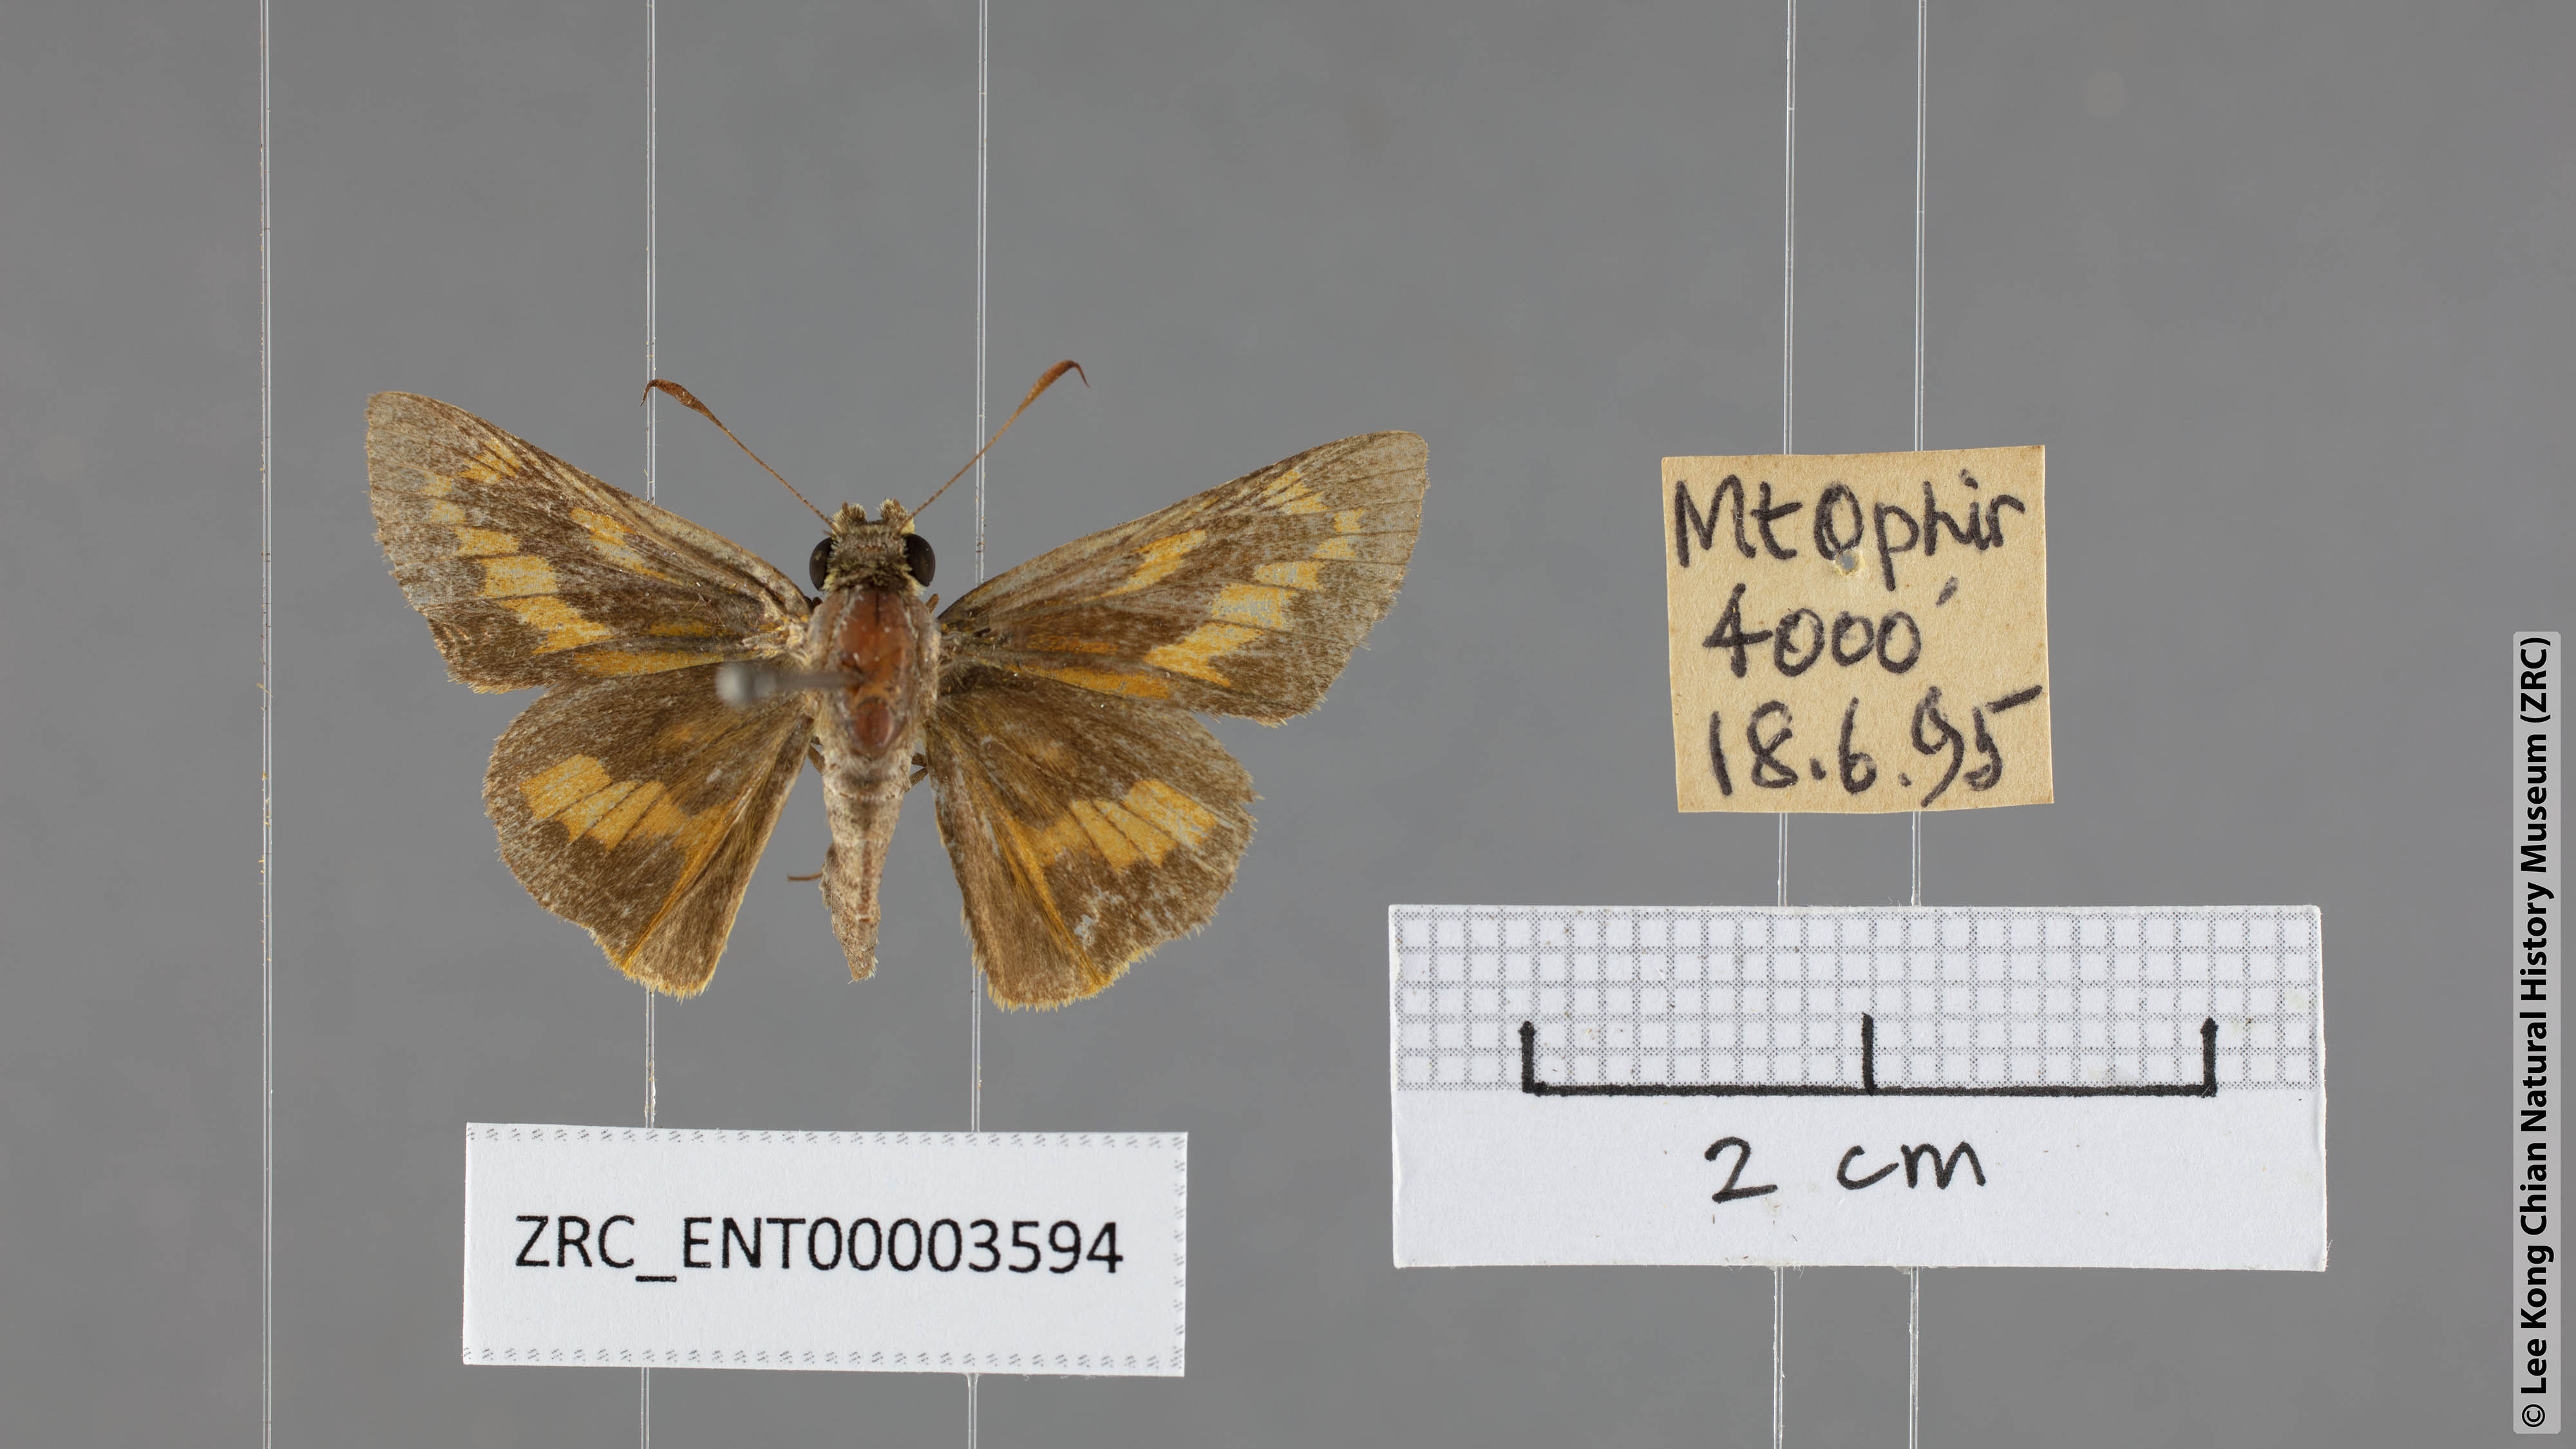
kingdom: Animalia
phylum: Arthropoda
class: Insecta
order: Lepidoptera
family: Hesperiidae
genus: Telicota
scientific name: Telicota hilda
